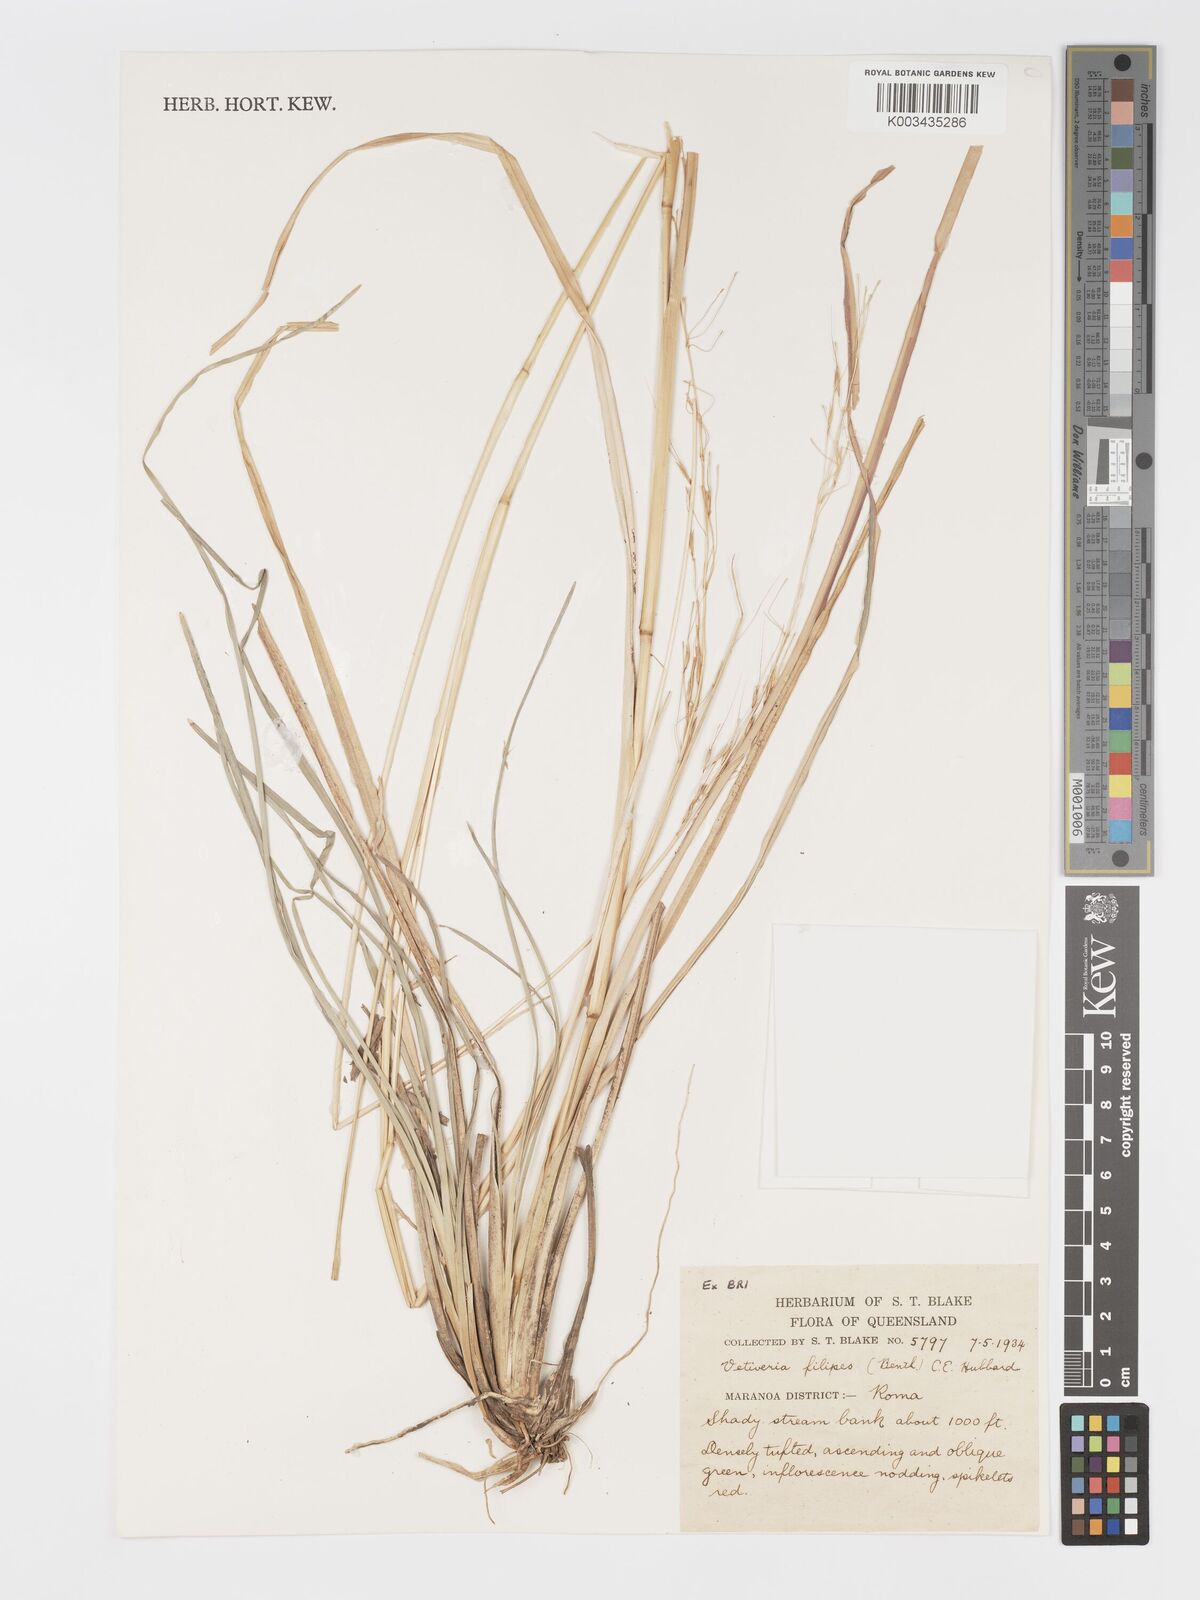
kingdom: Plantae
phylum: Tracheophyta
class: Liliopsida
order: Poales
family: Poaceae
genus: Chrysopogon
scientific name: Chrysopogon filipes
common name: Australian vetiver
